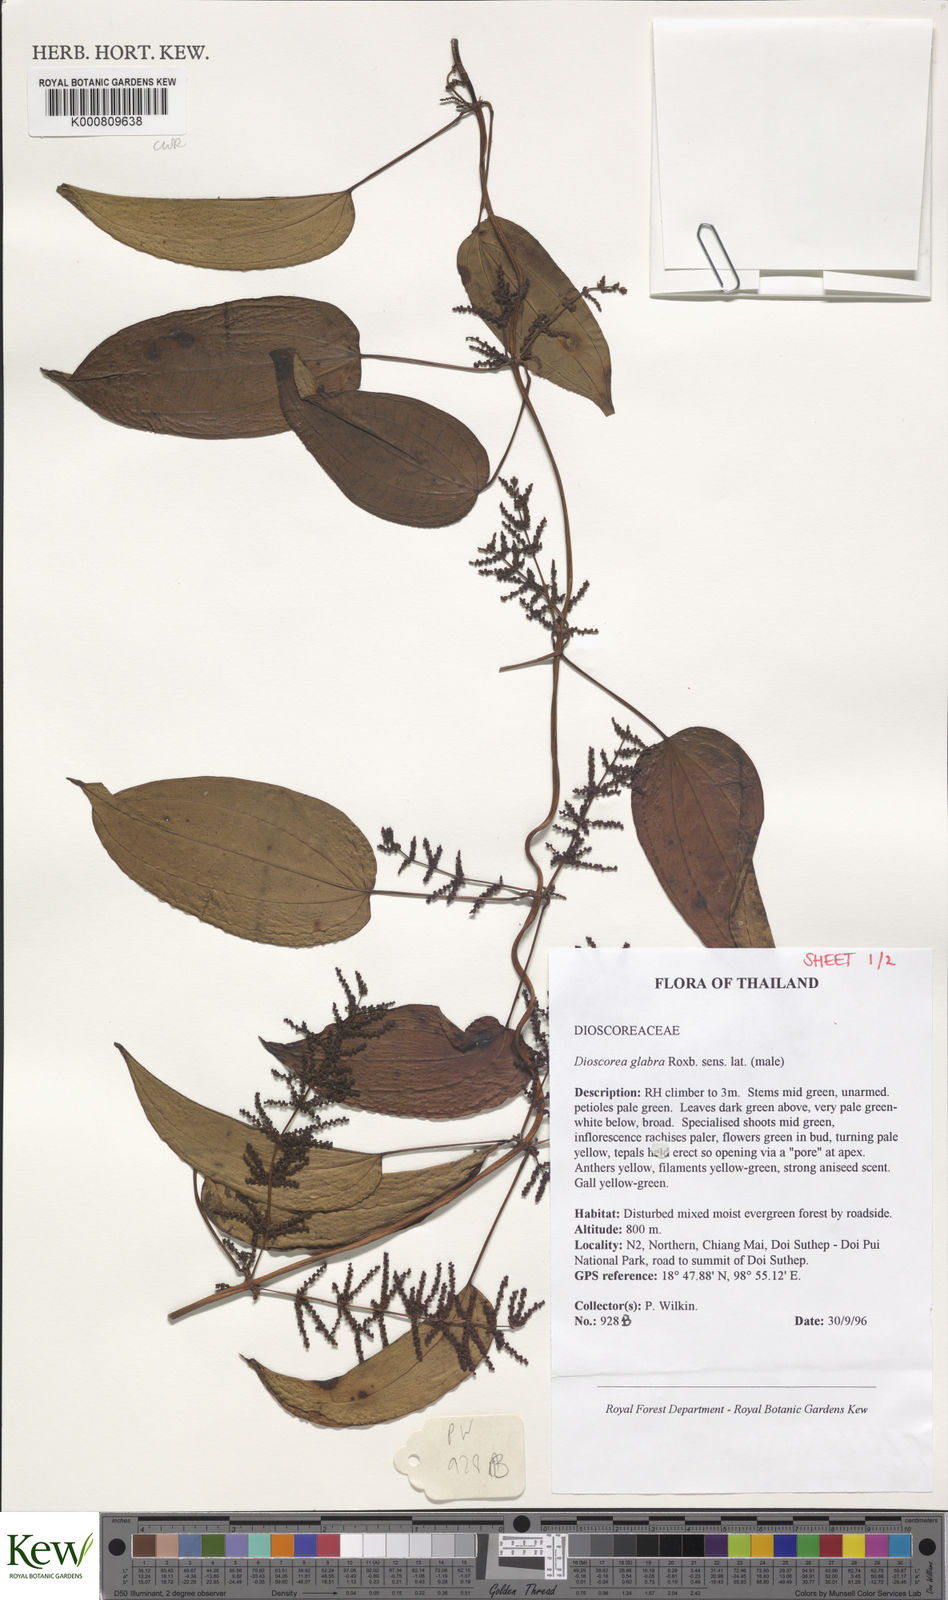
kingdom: Plantae
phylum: Tracheophyta
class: Liliopsida
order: Dioscoreales
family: Dioscoreaceae
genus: Dioscorea
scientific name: Dioscorea glabra
